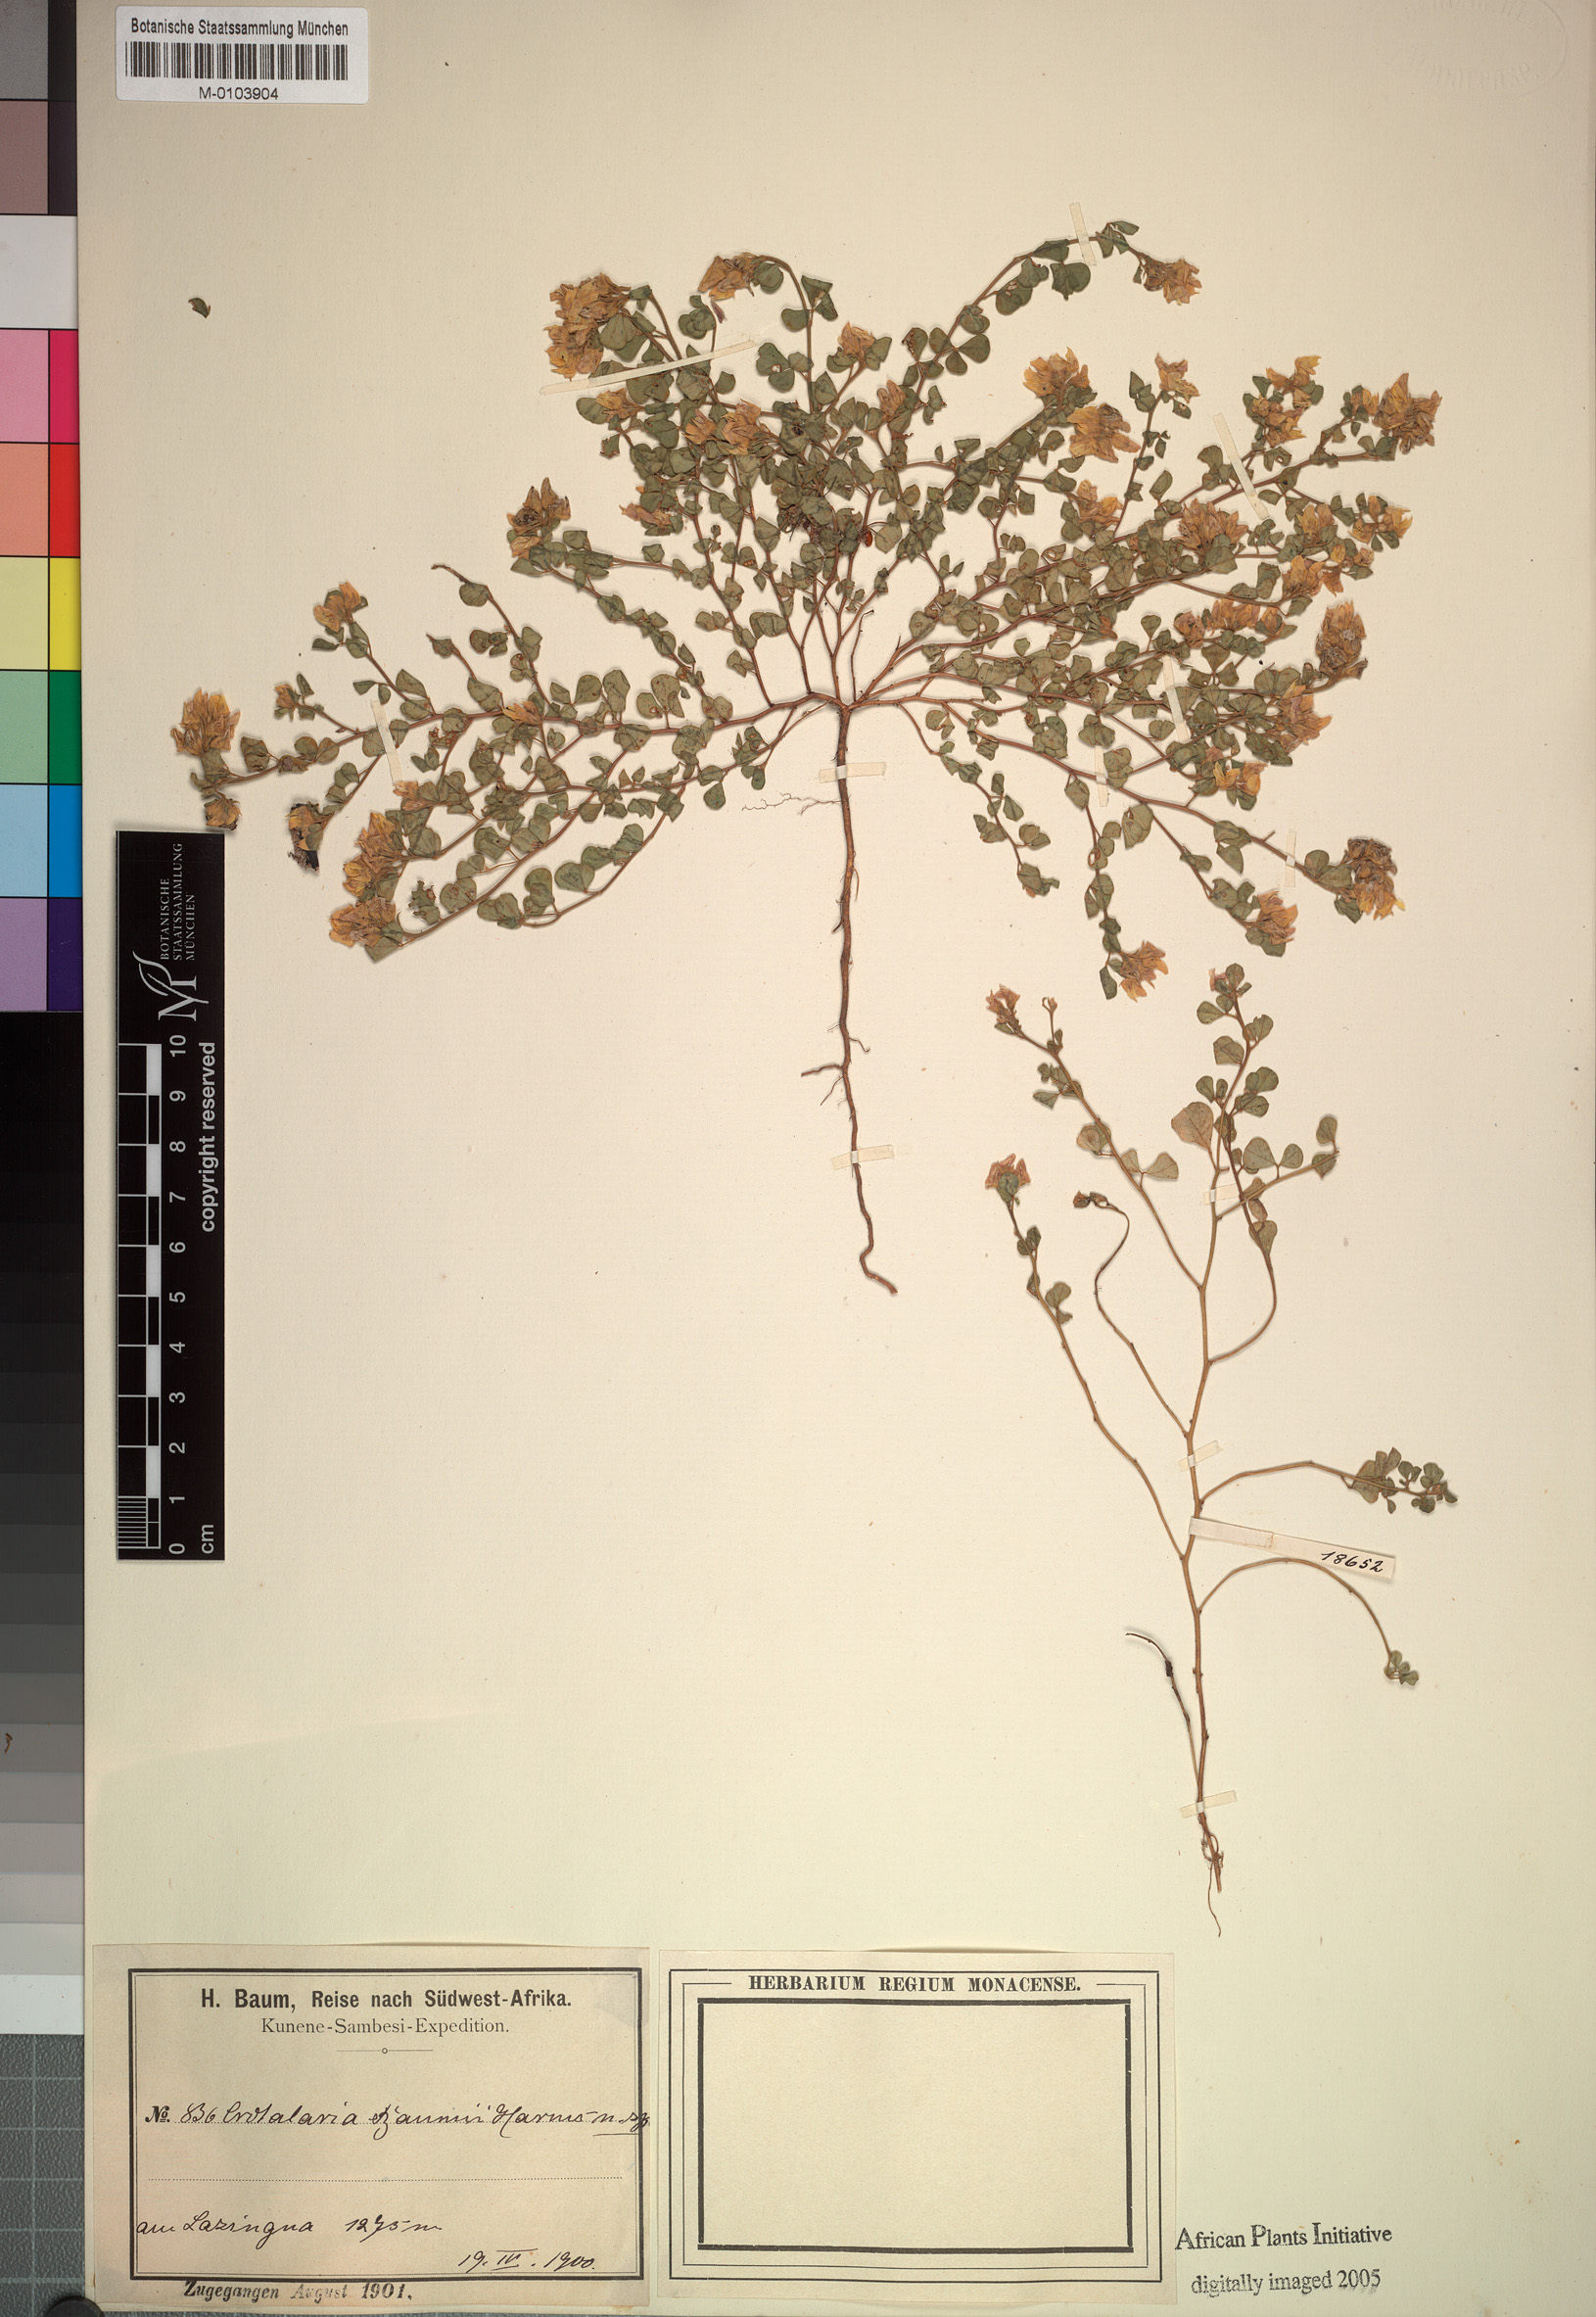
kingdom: Plantae
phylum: Tracheophyta
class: Magnoliopsida
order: Fabales
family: Fabaceae
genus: Crotalaria
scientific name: Crotalaria baumii
